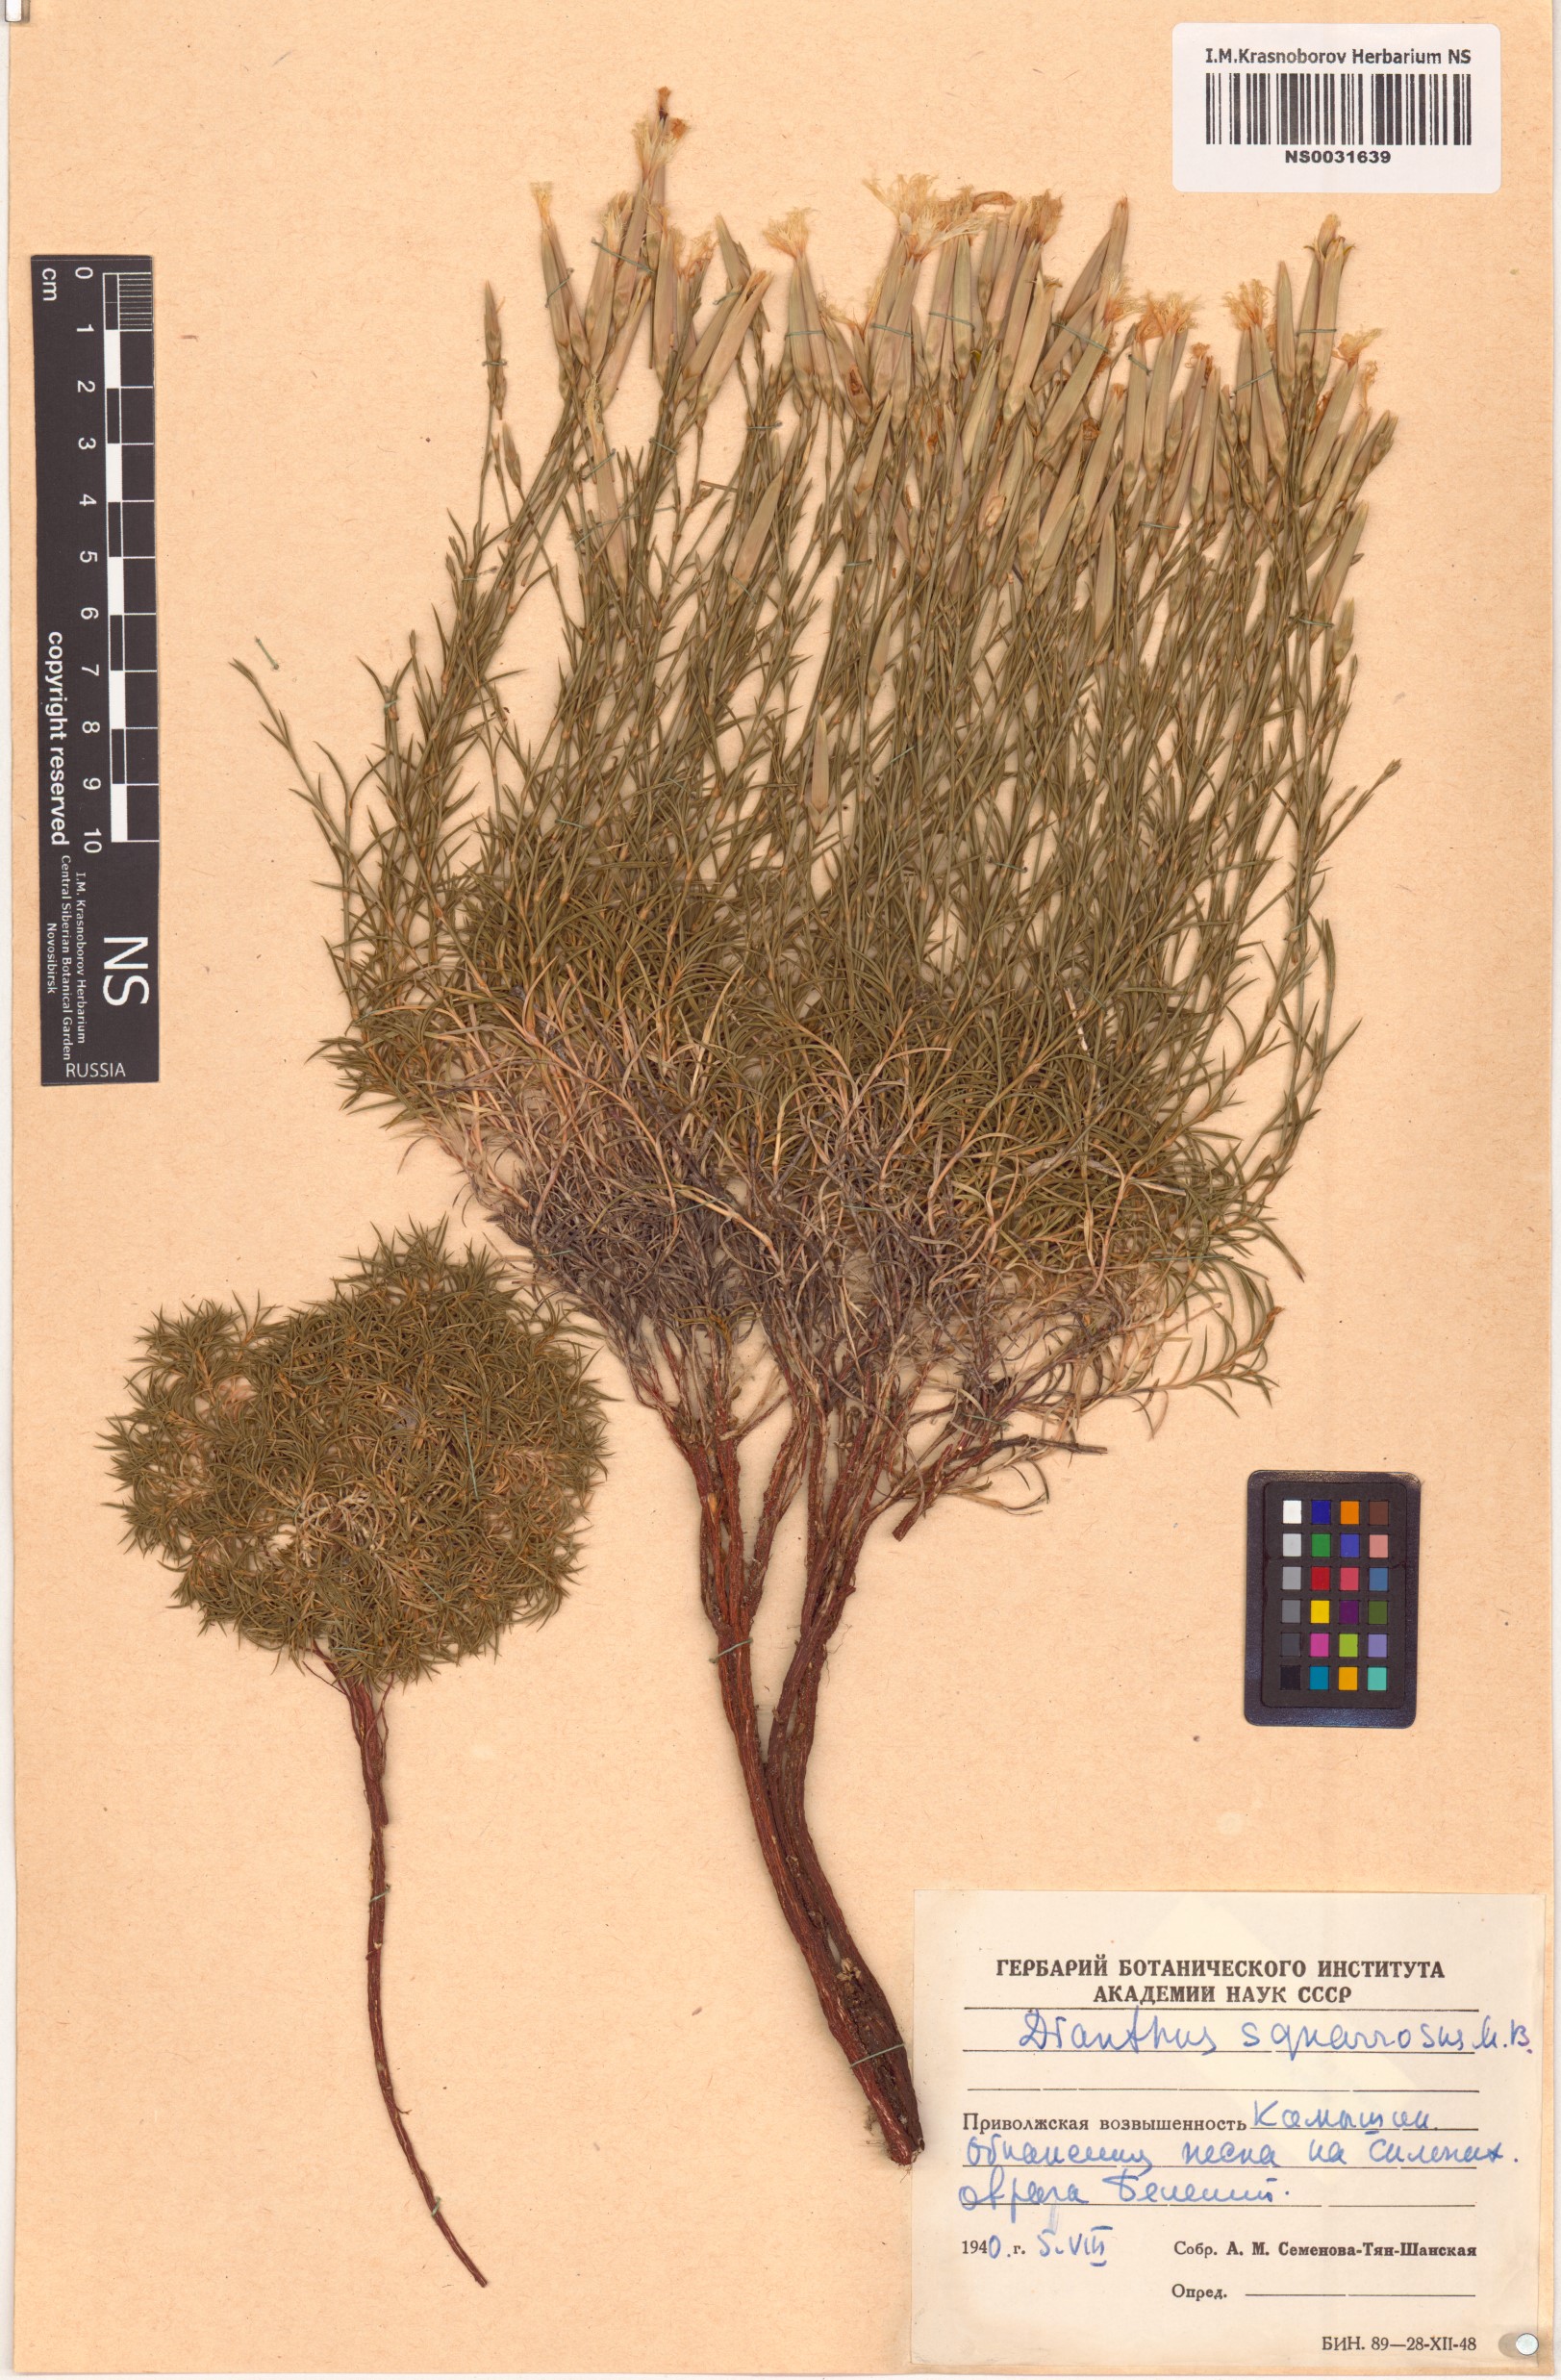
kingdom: Plantae
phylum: Tracheophyta
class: Magnoliopsida
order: Caryophyllales
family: Caryophyllaceae
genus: Dianthus
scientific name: Dianthus squarrosus
